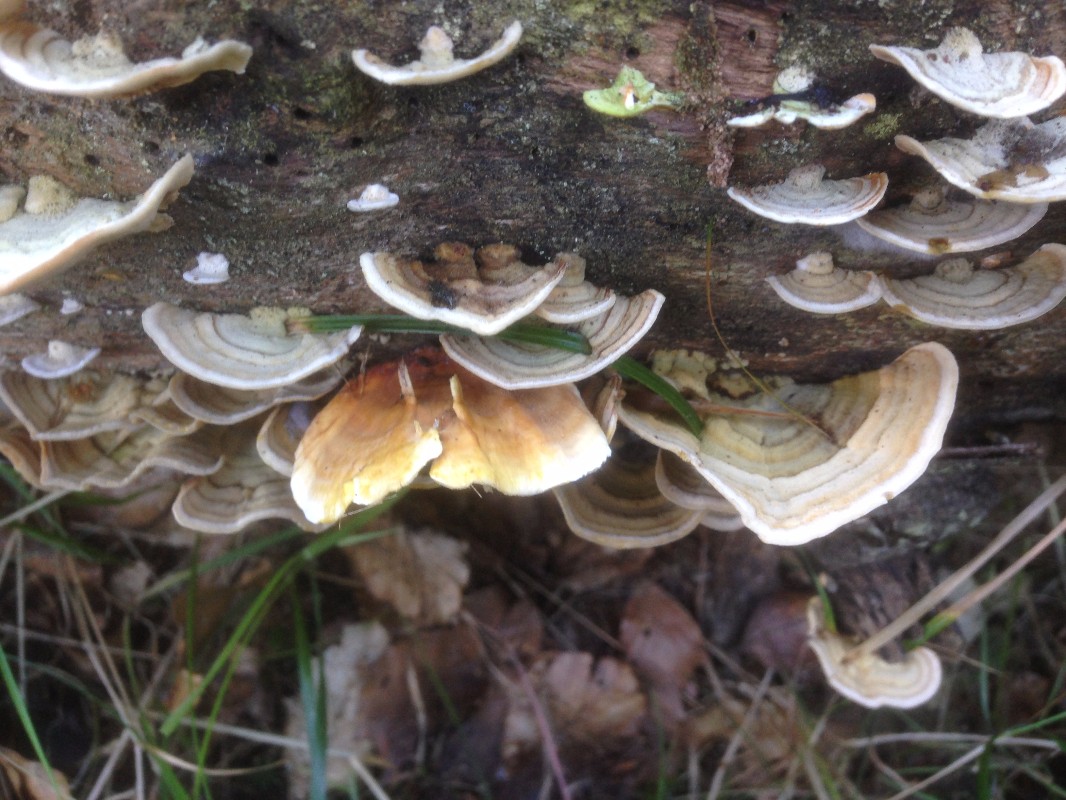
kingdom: Fungi
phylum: Basidiomycota
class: Agaricomycetes
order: Russulales
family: Stereaceae
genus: Stereum
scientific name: Stereum subtomentosum
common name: smuk lædersvamp
